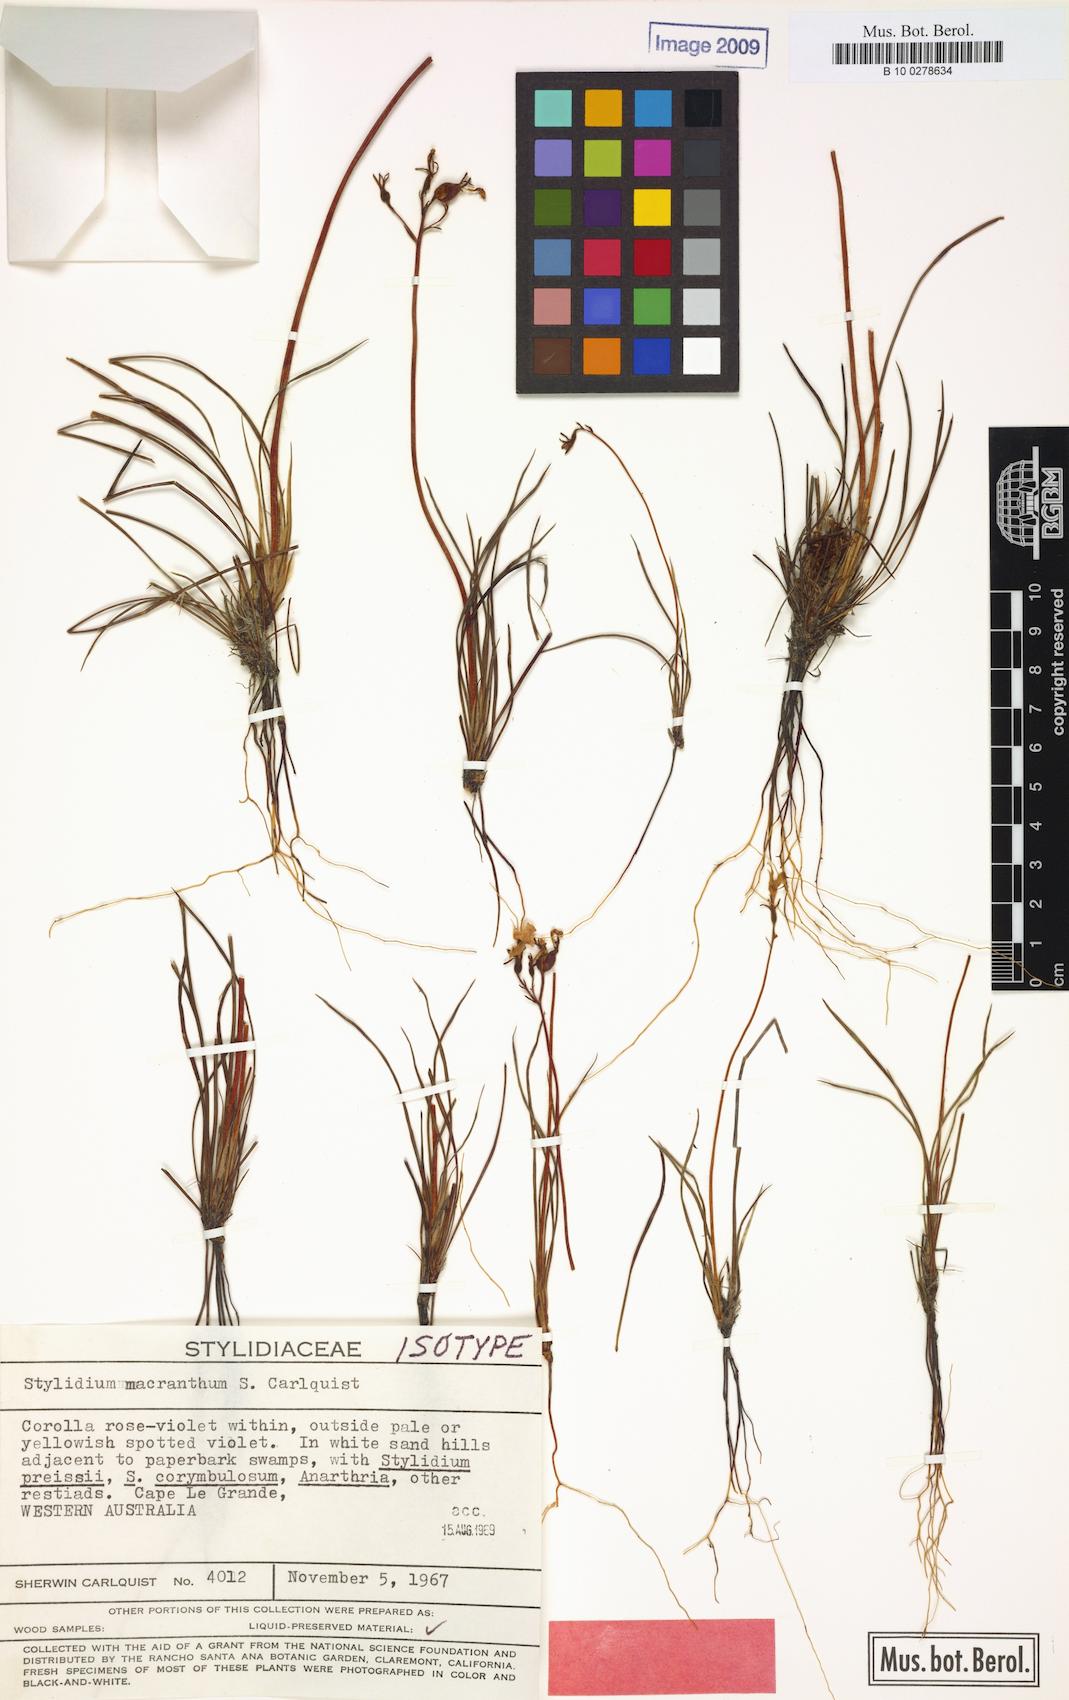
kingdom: Plantae
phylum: Tracheophyta
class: Magnoliopsida
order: Asterales
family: Stylidiaceae
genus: Stylidium
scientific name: Stylidium macranthum
